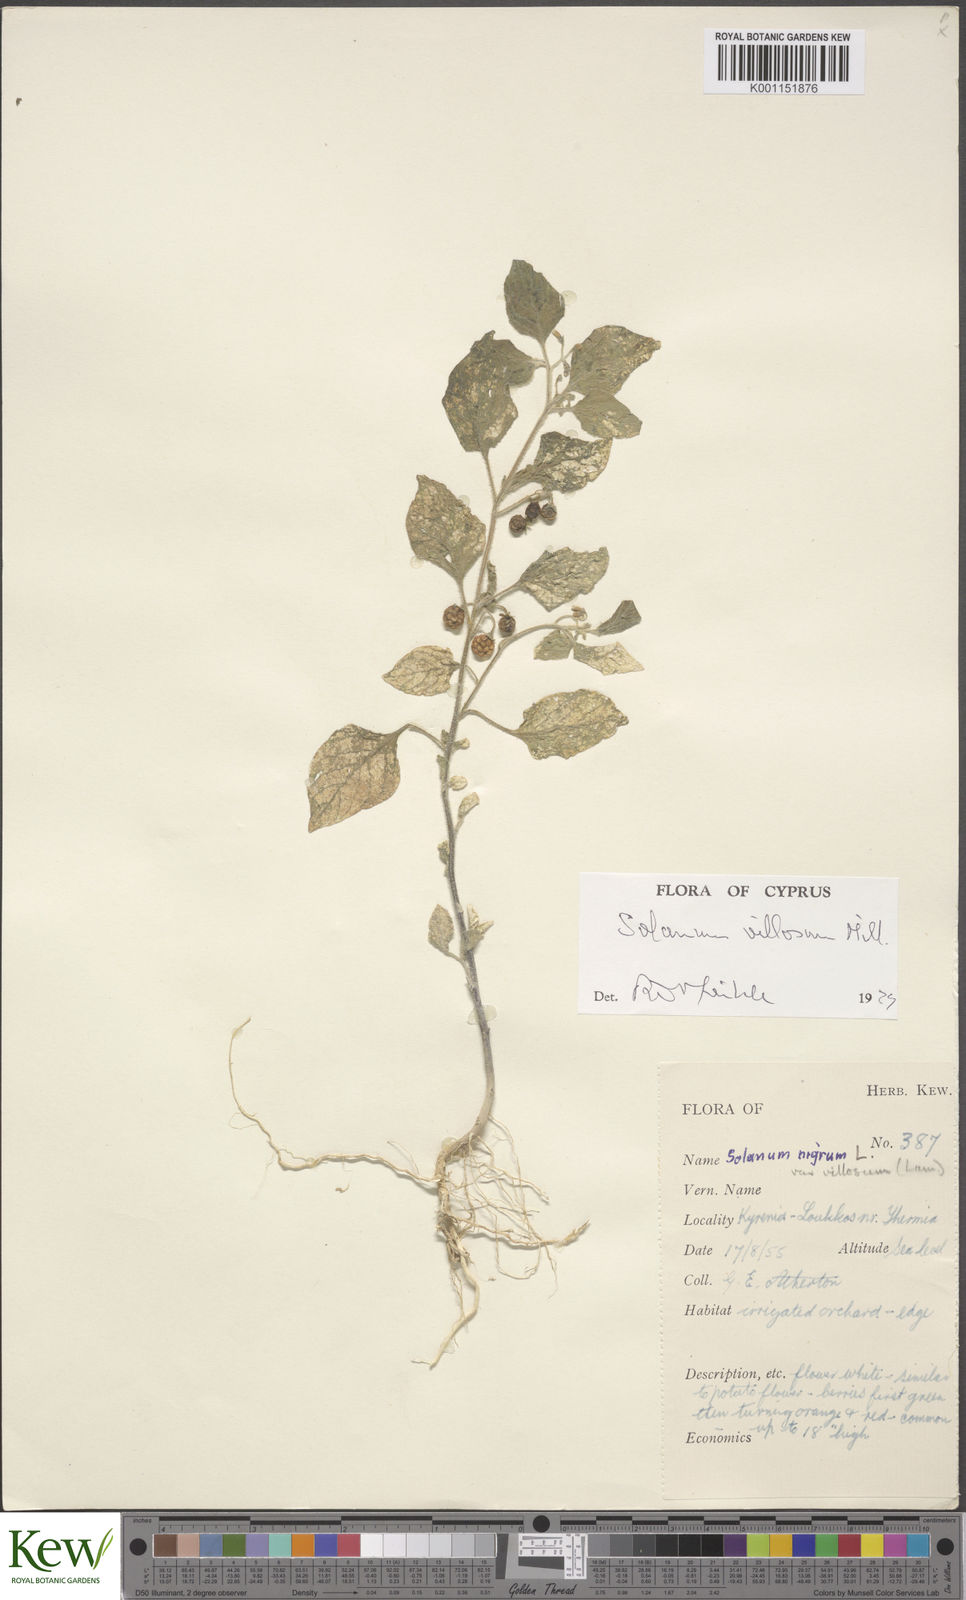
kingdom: Plantae
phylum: Tracheophyta
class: Magnoliopsida
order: Solanales
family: Solanaceae
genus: Solanum
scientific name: Solanum villosum
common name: Red nightshade
